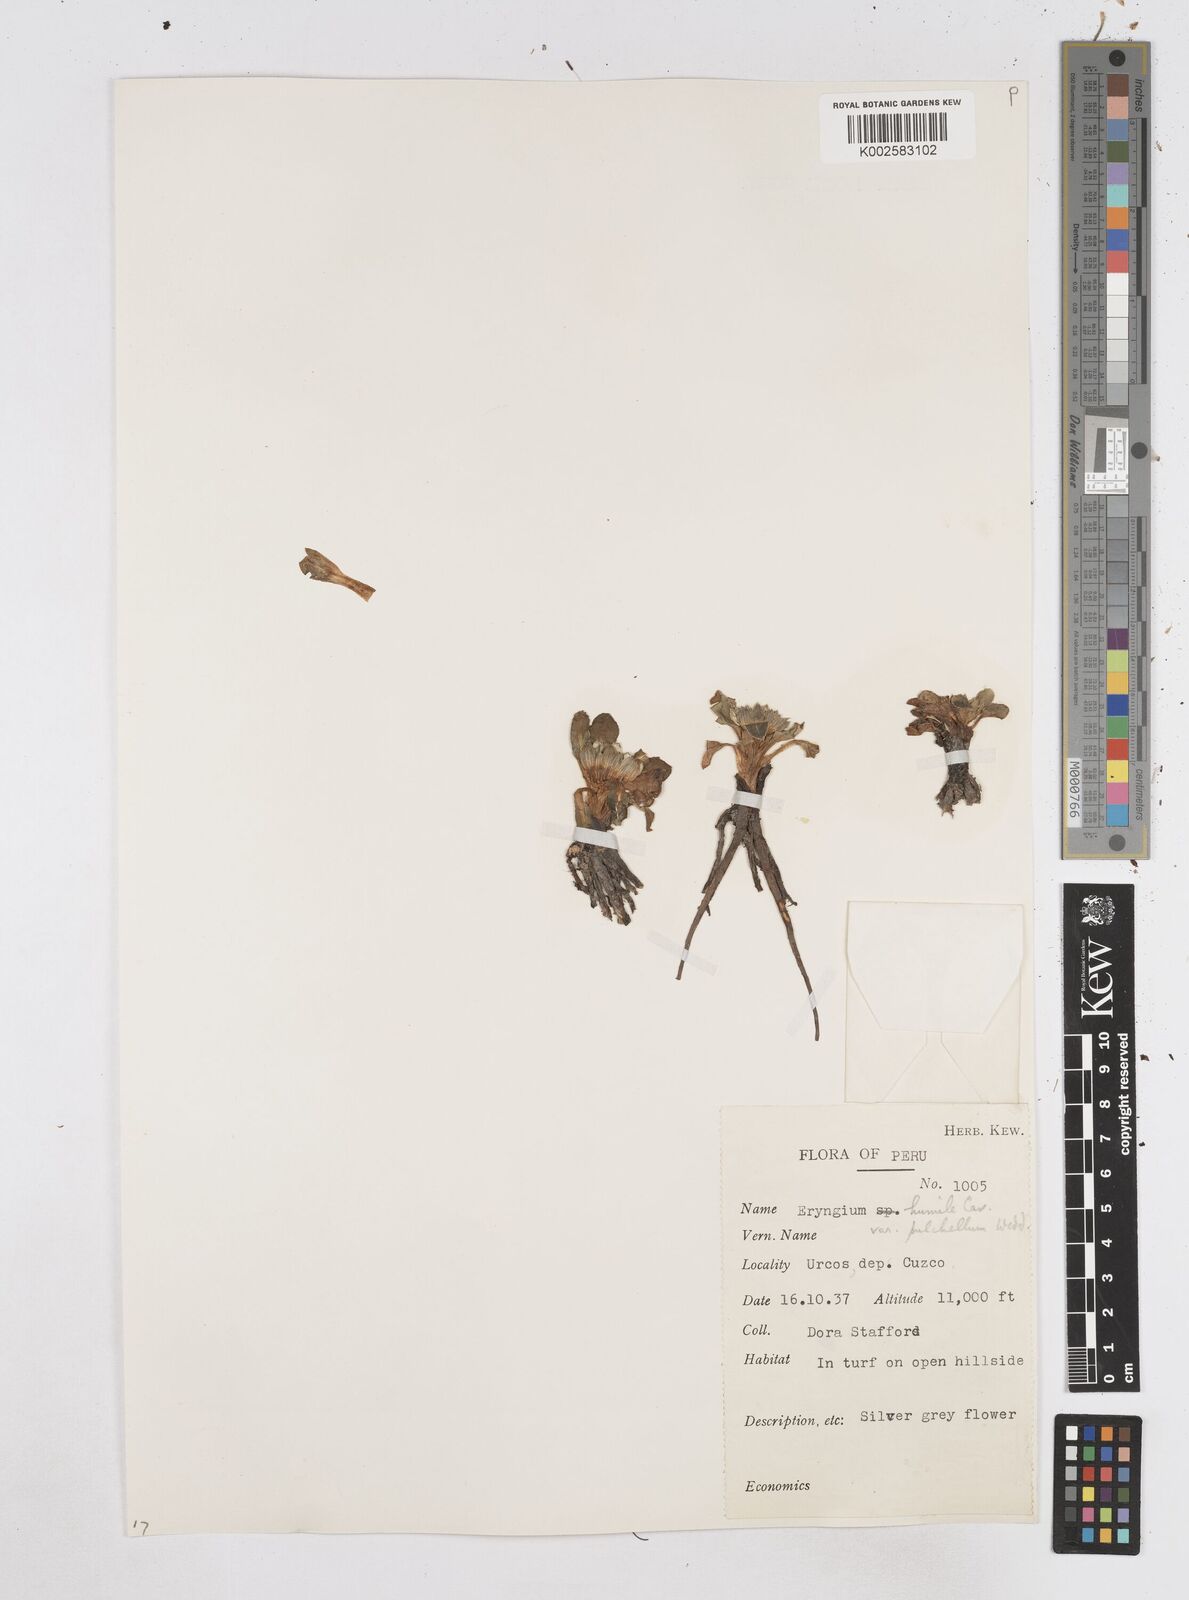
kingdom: Plantae
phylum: Tracheophyta
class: Magnoliopsida
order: Apiales
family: Apiaceae
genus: Eryngium
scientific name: Eryngium humile
